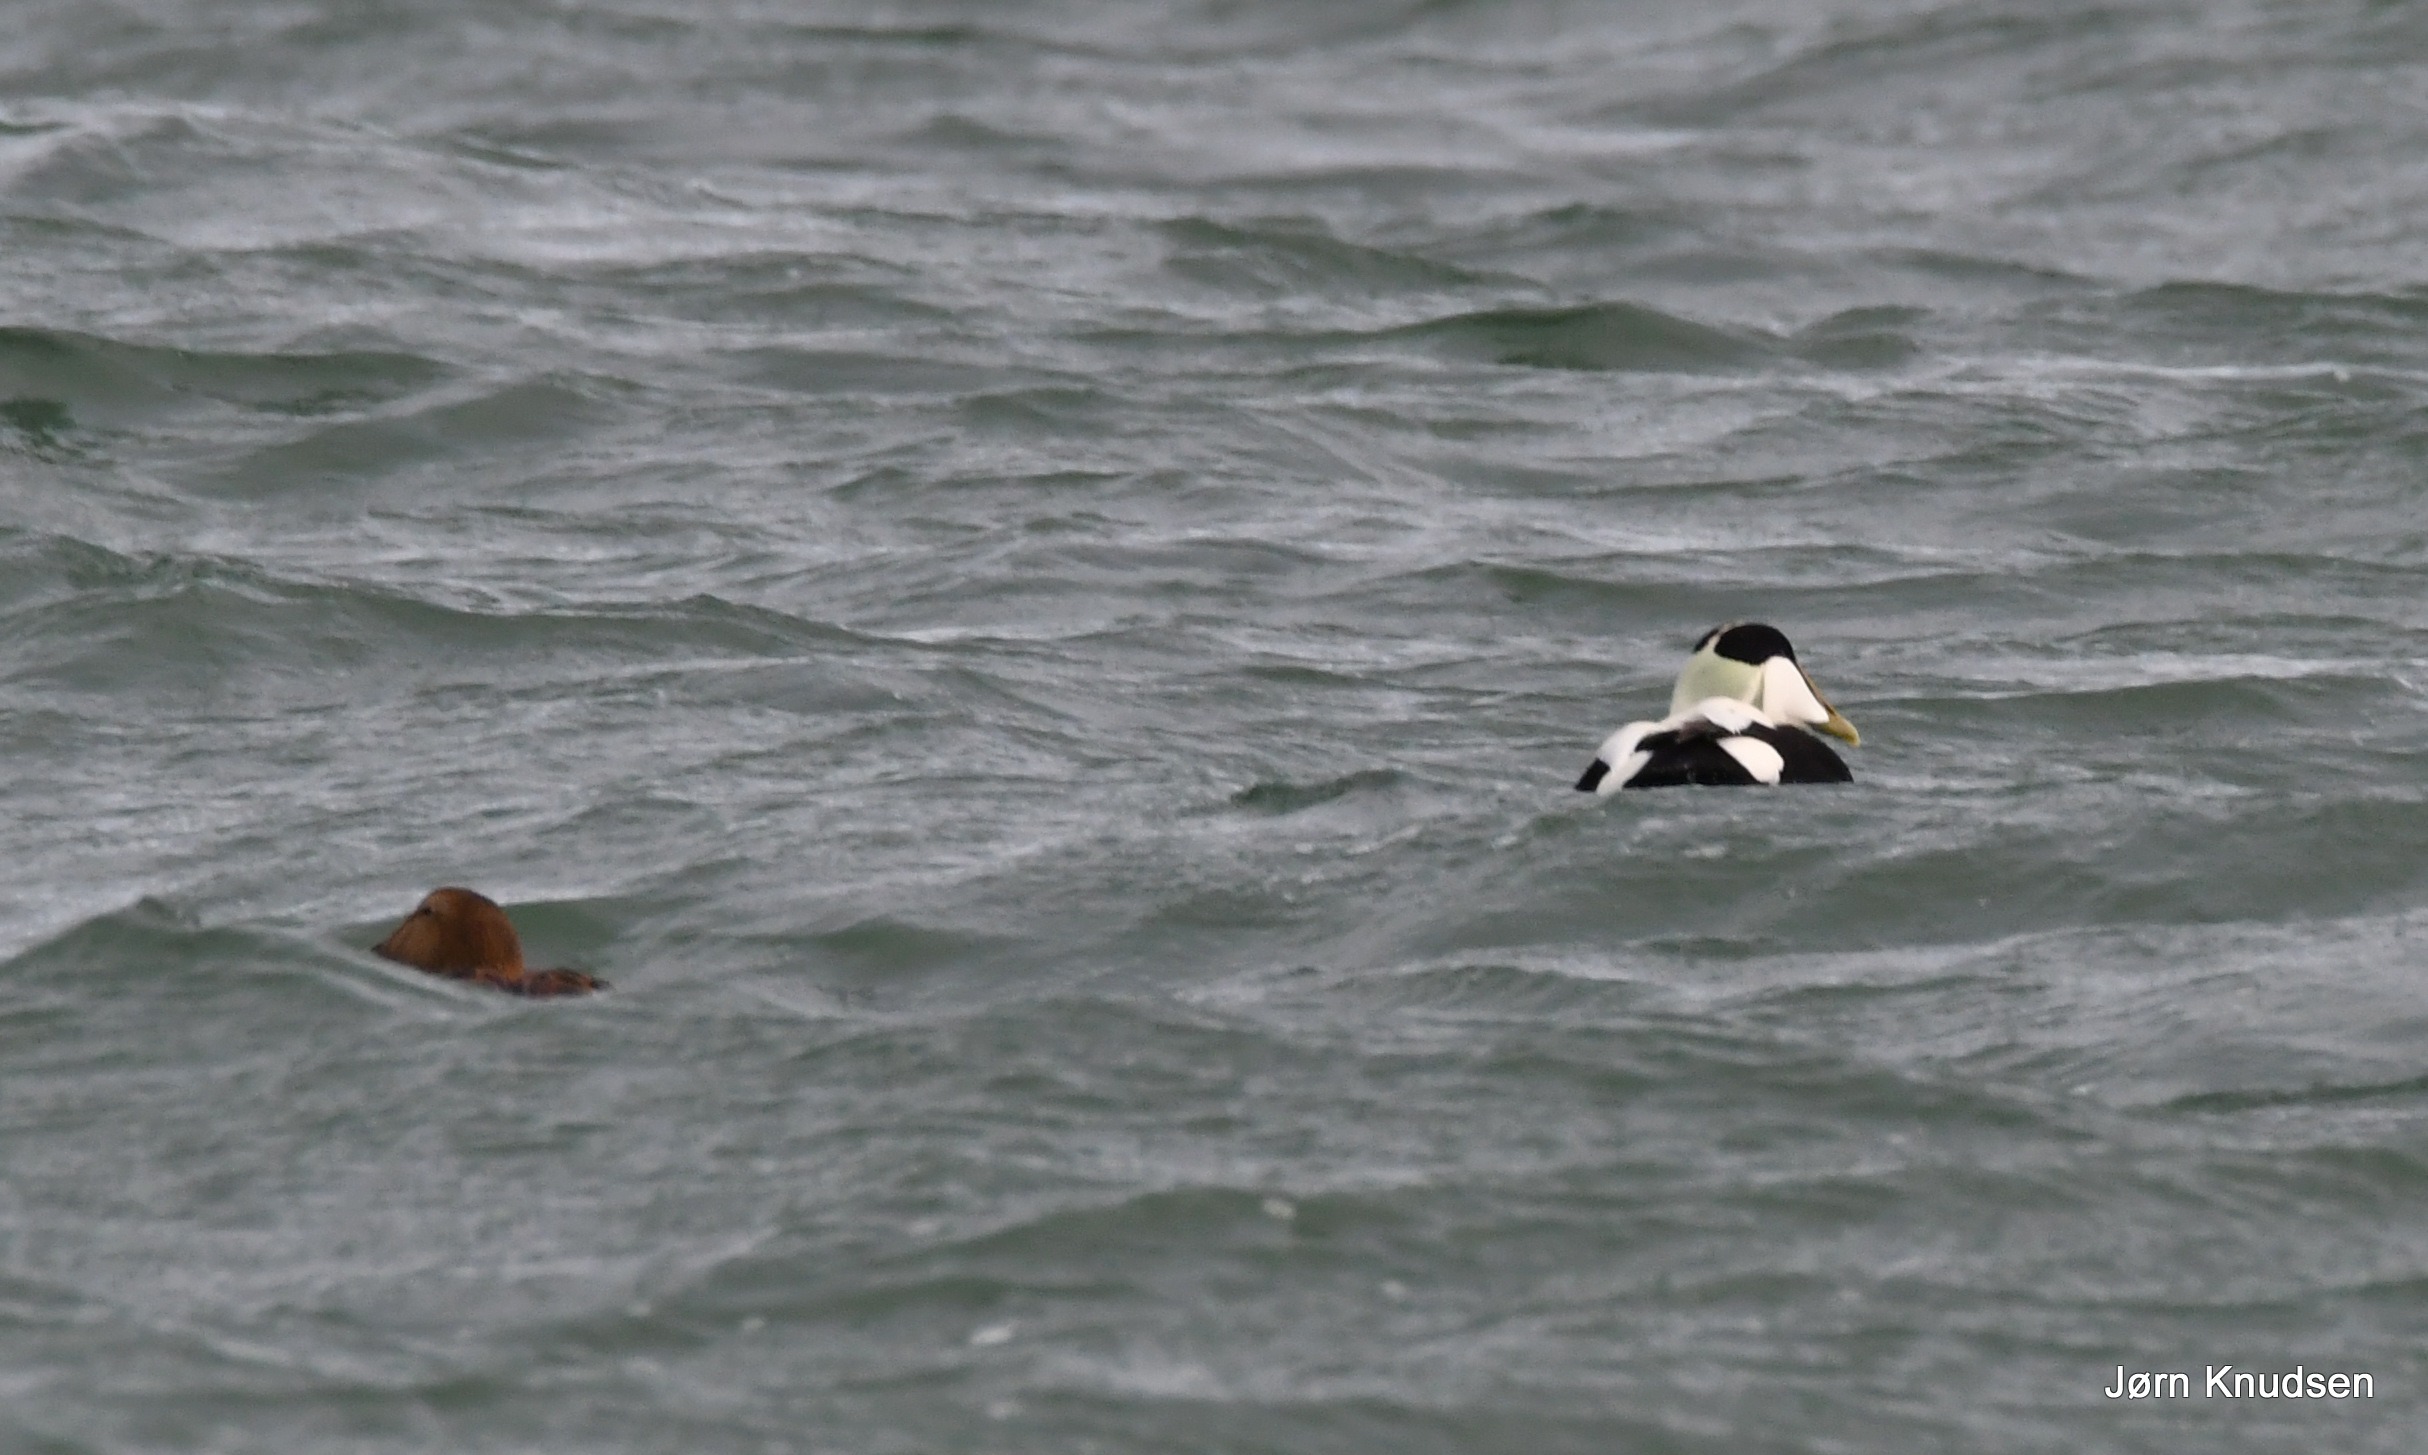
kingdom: Animalia
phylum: Chordata
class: Aves
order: Anseriformes
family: Anatidae
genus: Somateria
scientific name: Somateria mollissima
